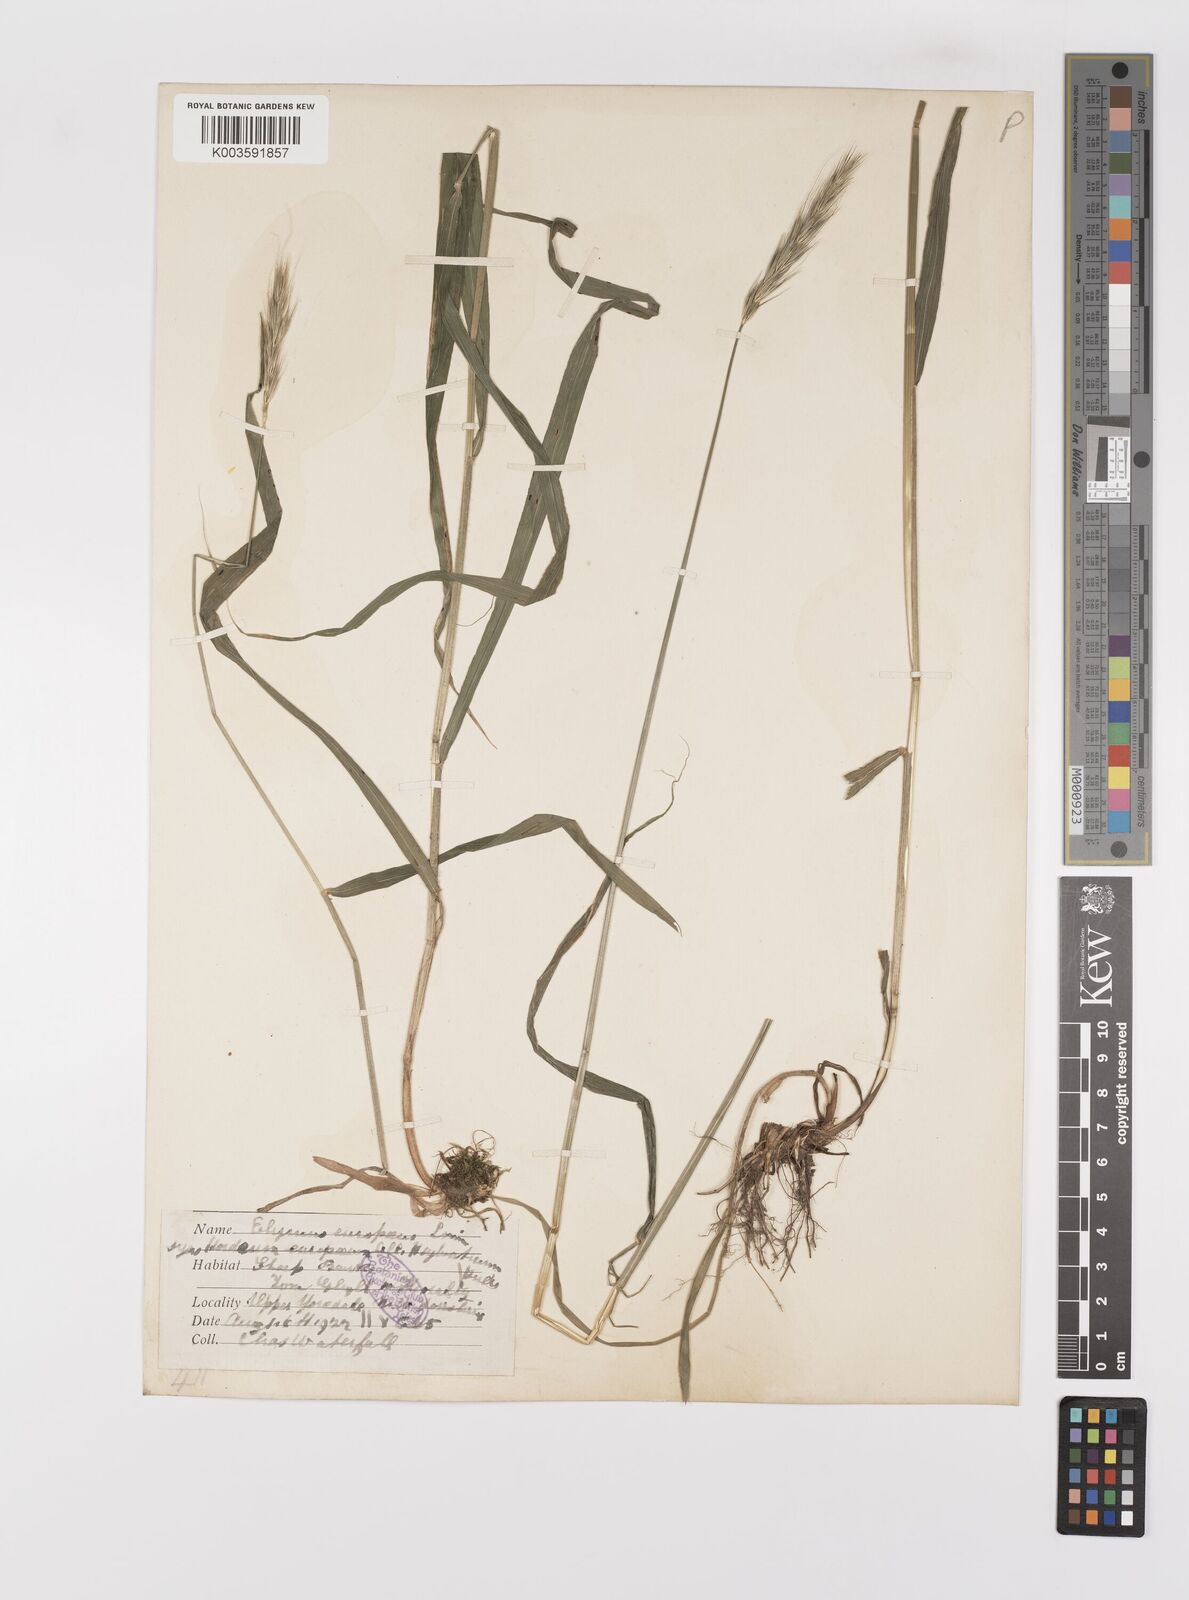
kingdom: Plantae
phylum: Tracheophyta
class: Liliopsida
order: Poales
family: Poaceae
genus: Hordelymus
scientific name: Hordelymus europaeus
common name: Wood-barley
